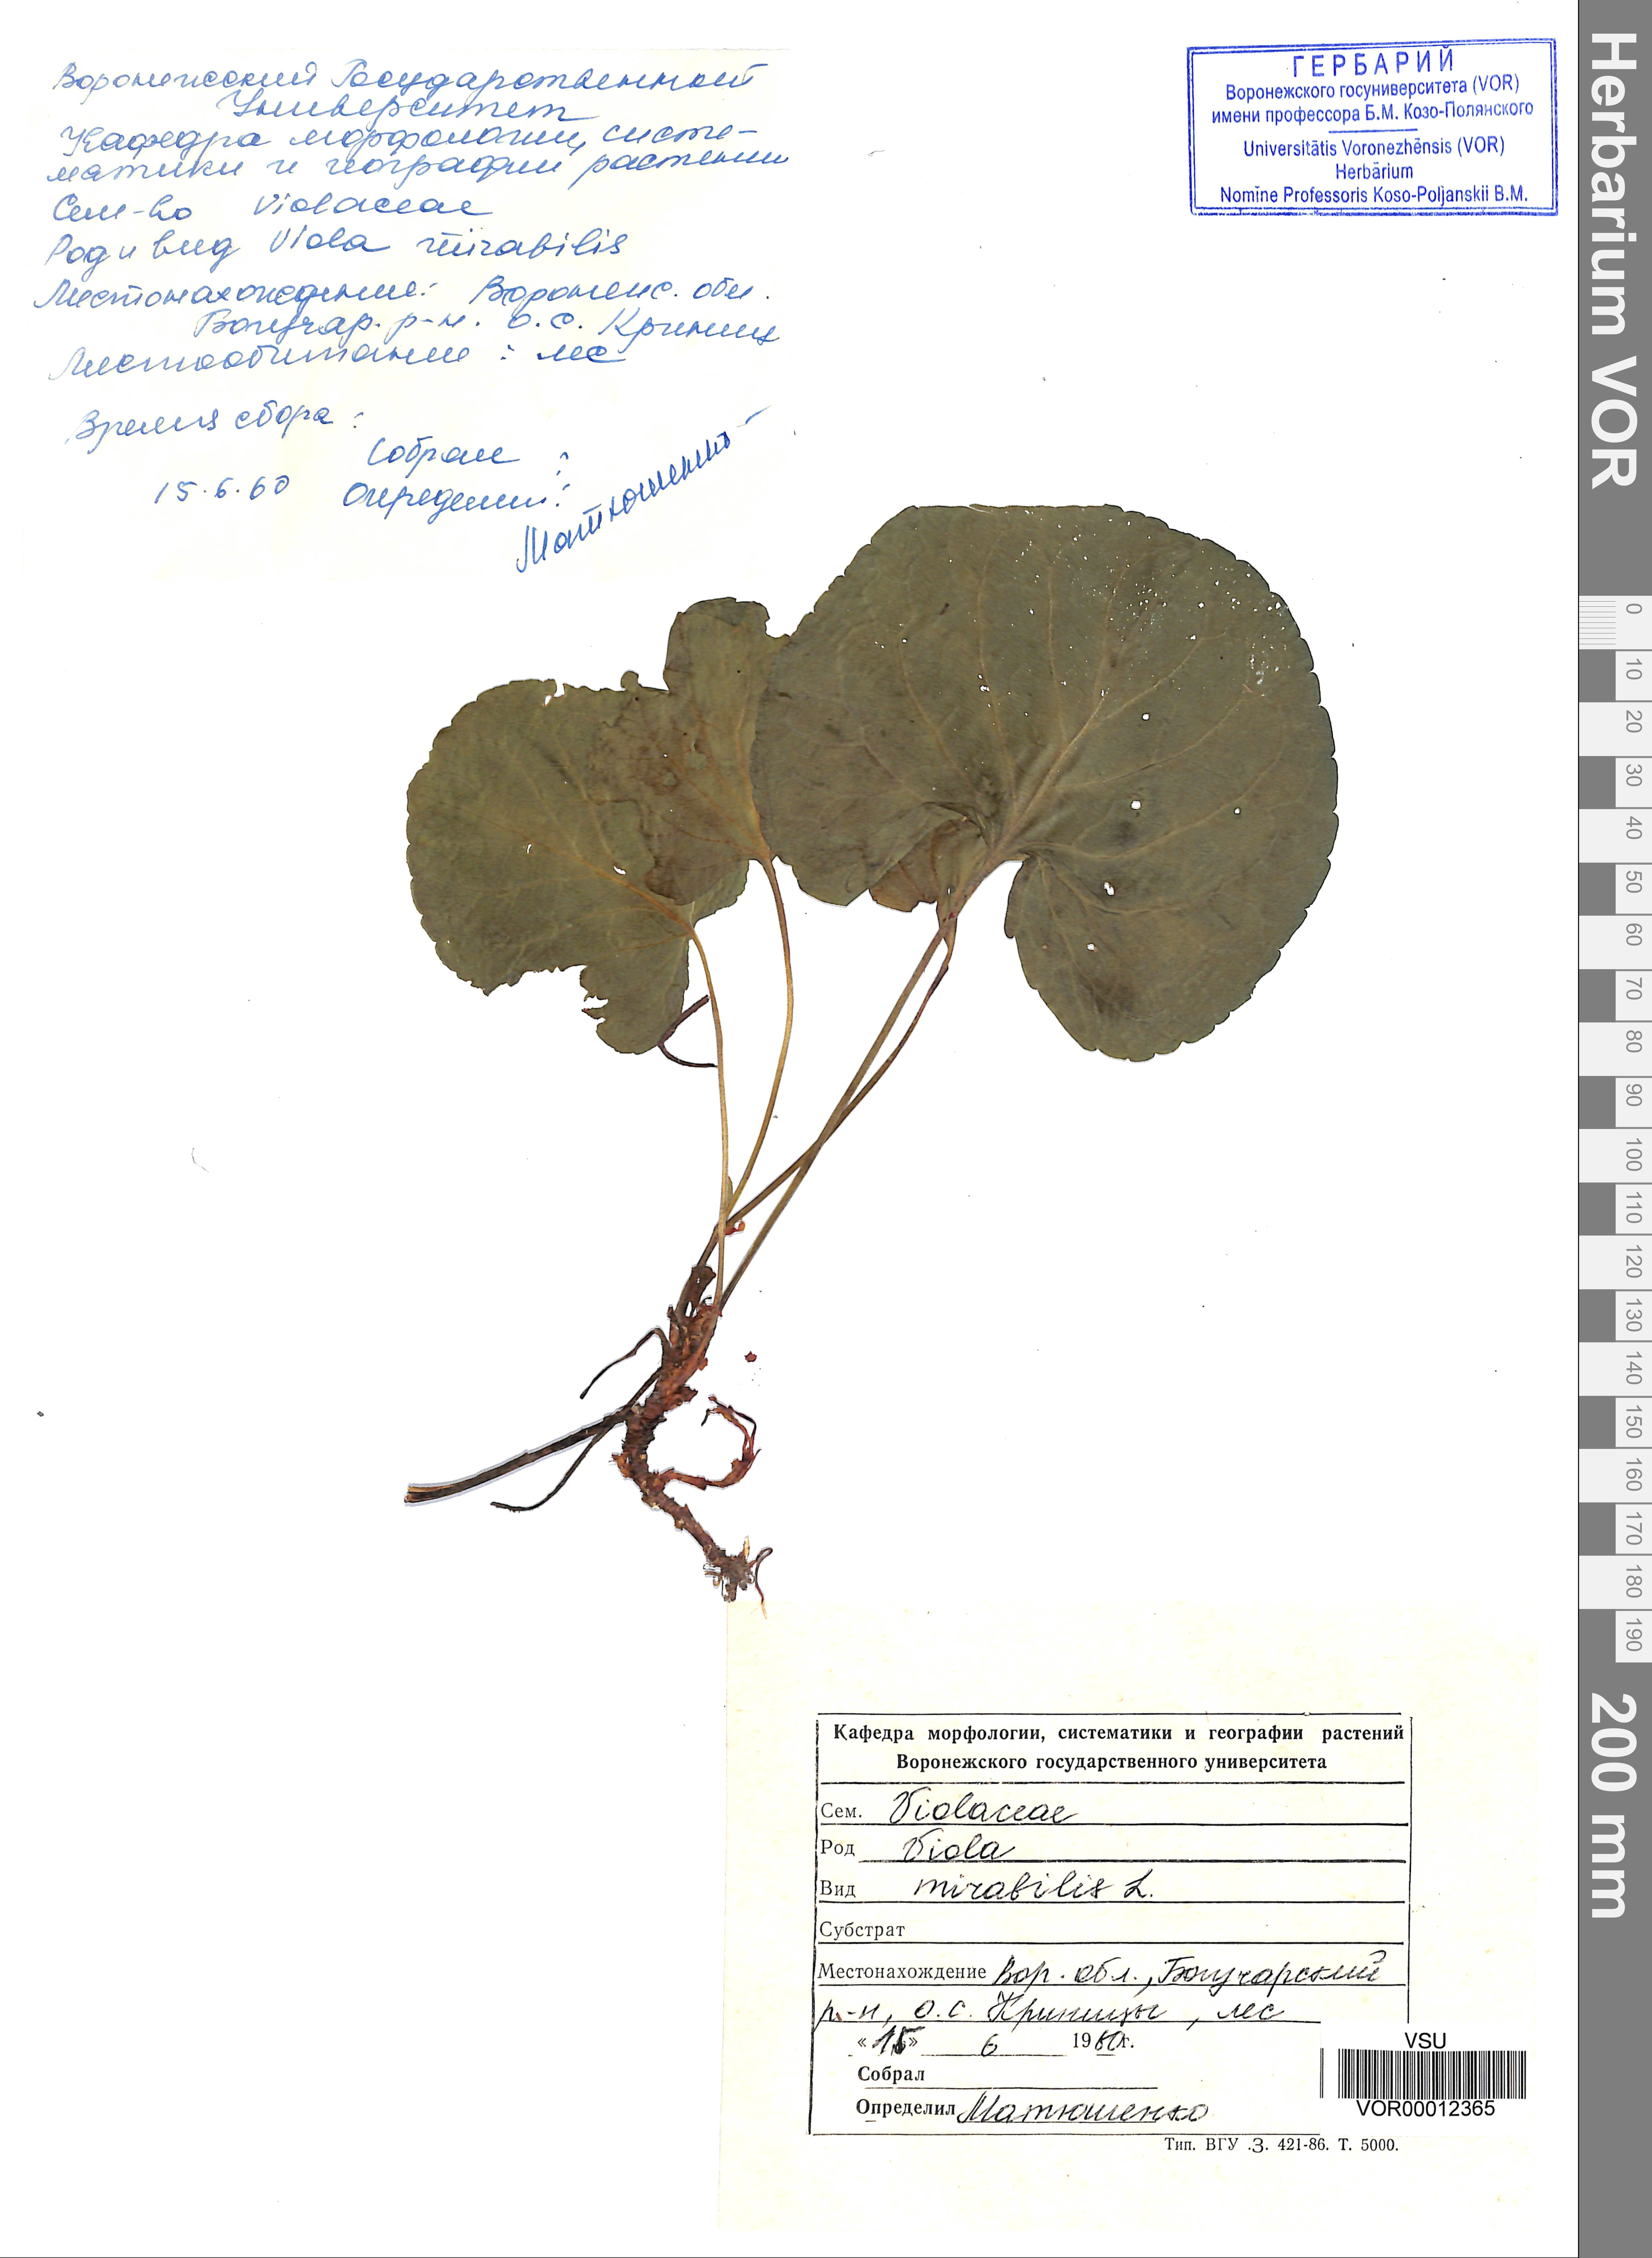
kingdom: Plantae
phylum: Tracheophyta
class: Magnoliopsida
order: Malpighiales
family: Violaceae
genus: Viola
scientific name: Viola mirabilis
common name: Wonder violet
